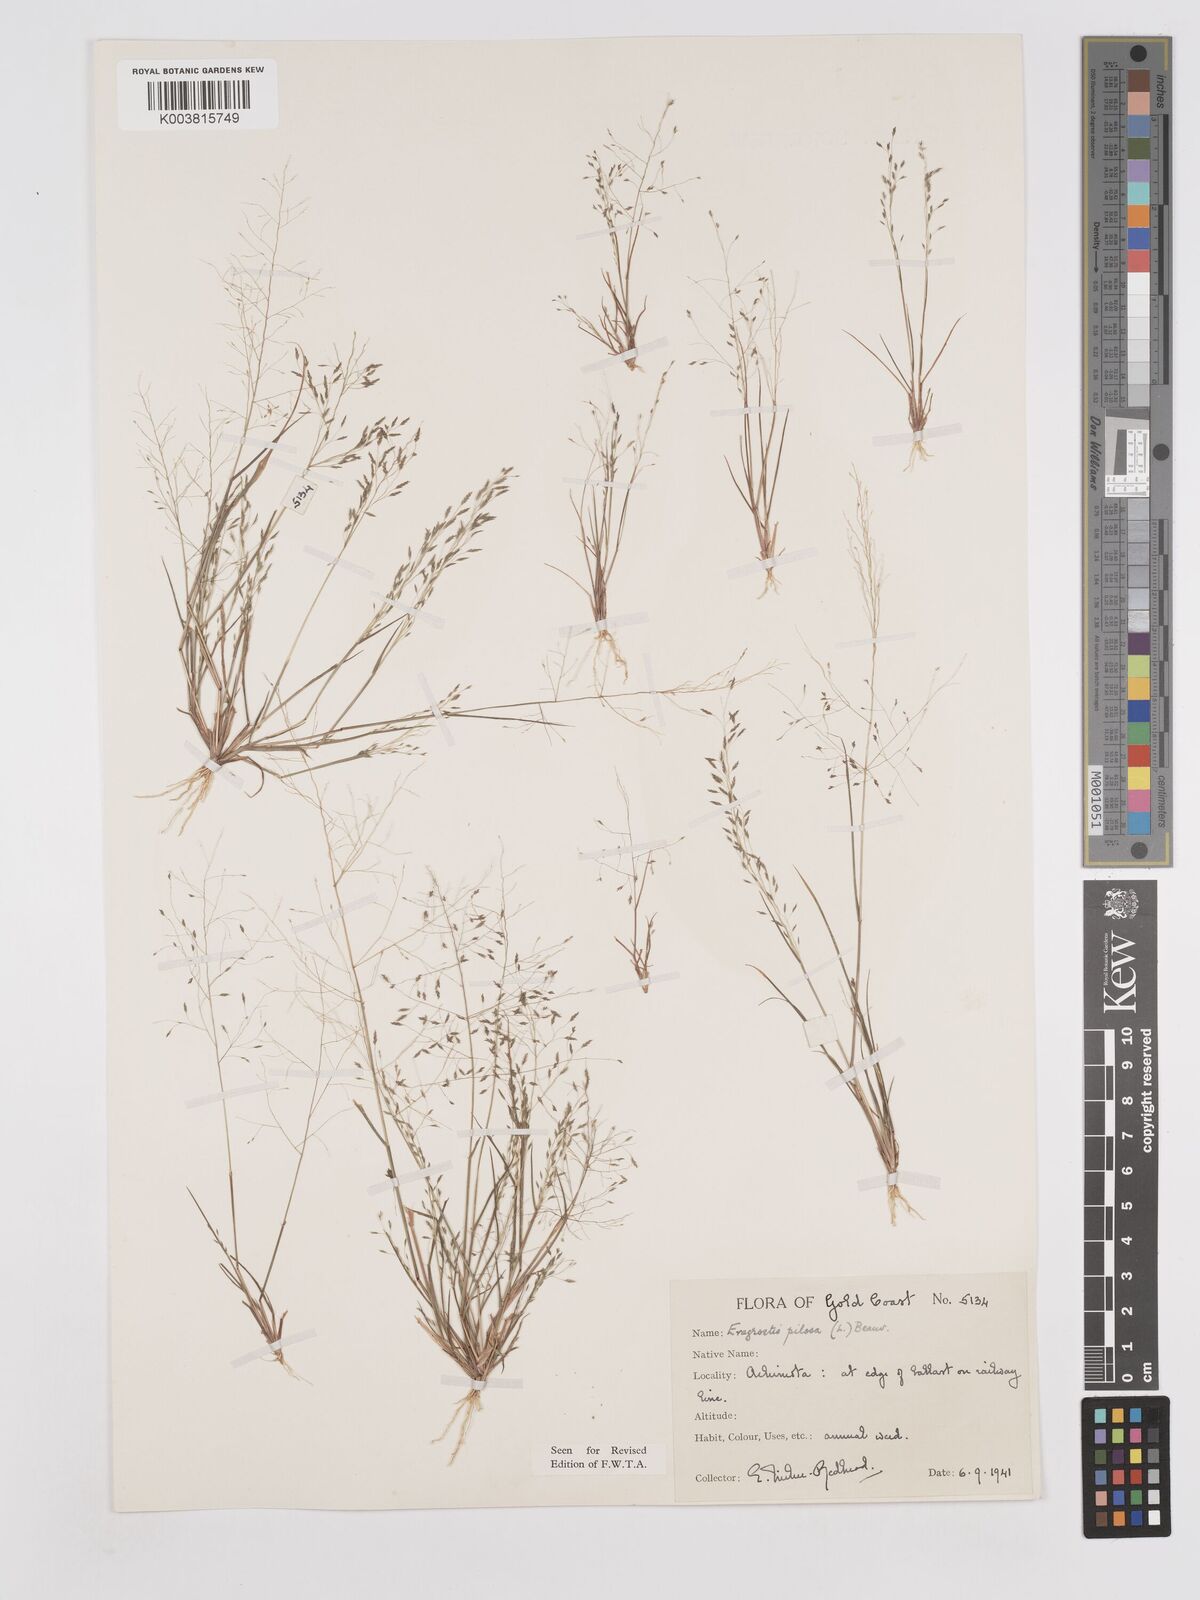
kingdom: Plantae
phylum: Tracheophyta
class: Liliopsida
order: Poales
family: Poaceae
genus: Eragrostis
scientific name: Eragrostis pilosa
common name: Indian lovegrass
